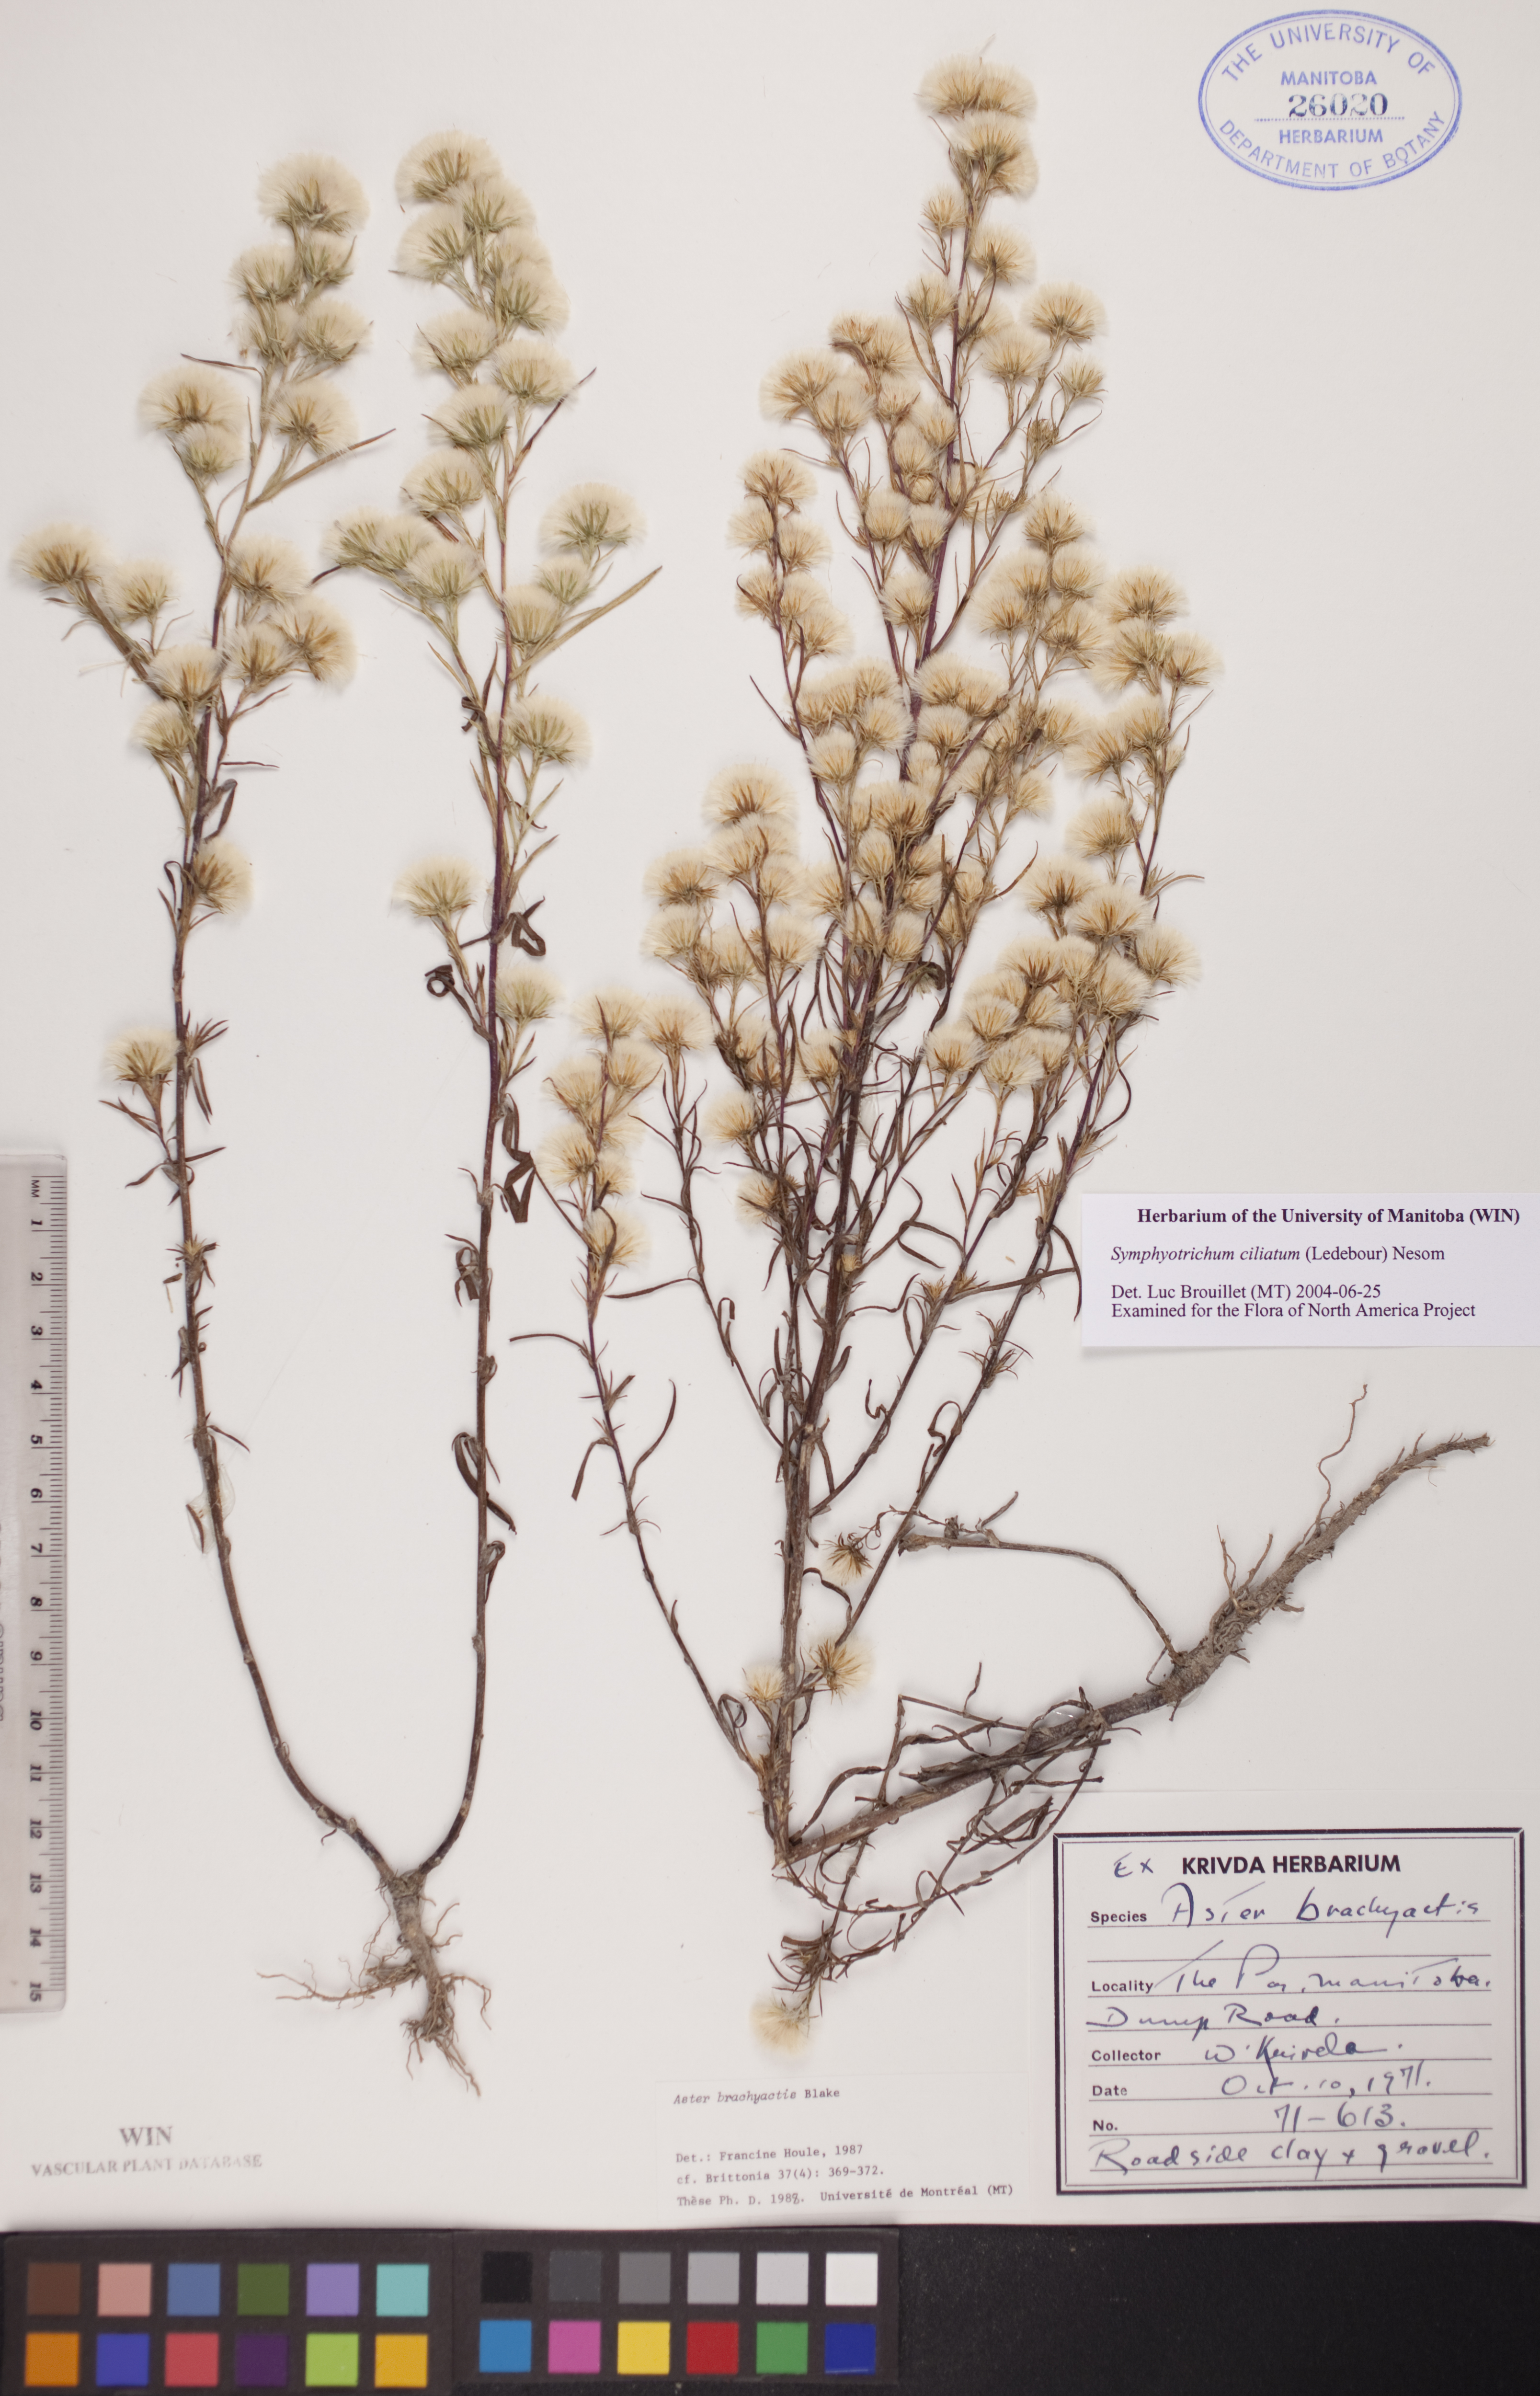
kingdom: Plantae
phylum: Tracheophyta
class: Magnoliopsida
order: Asterales
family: Asteraceae
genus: Symphyotrichum
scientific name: Symphyotrichum ciliatum
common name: Rayless annual aster
